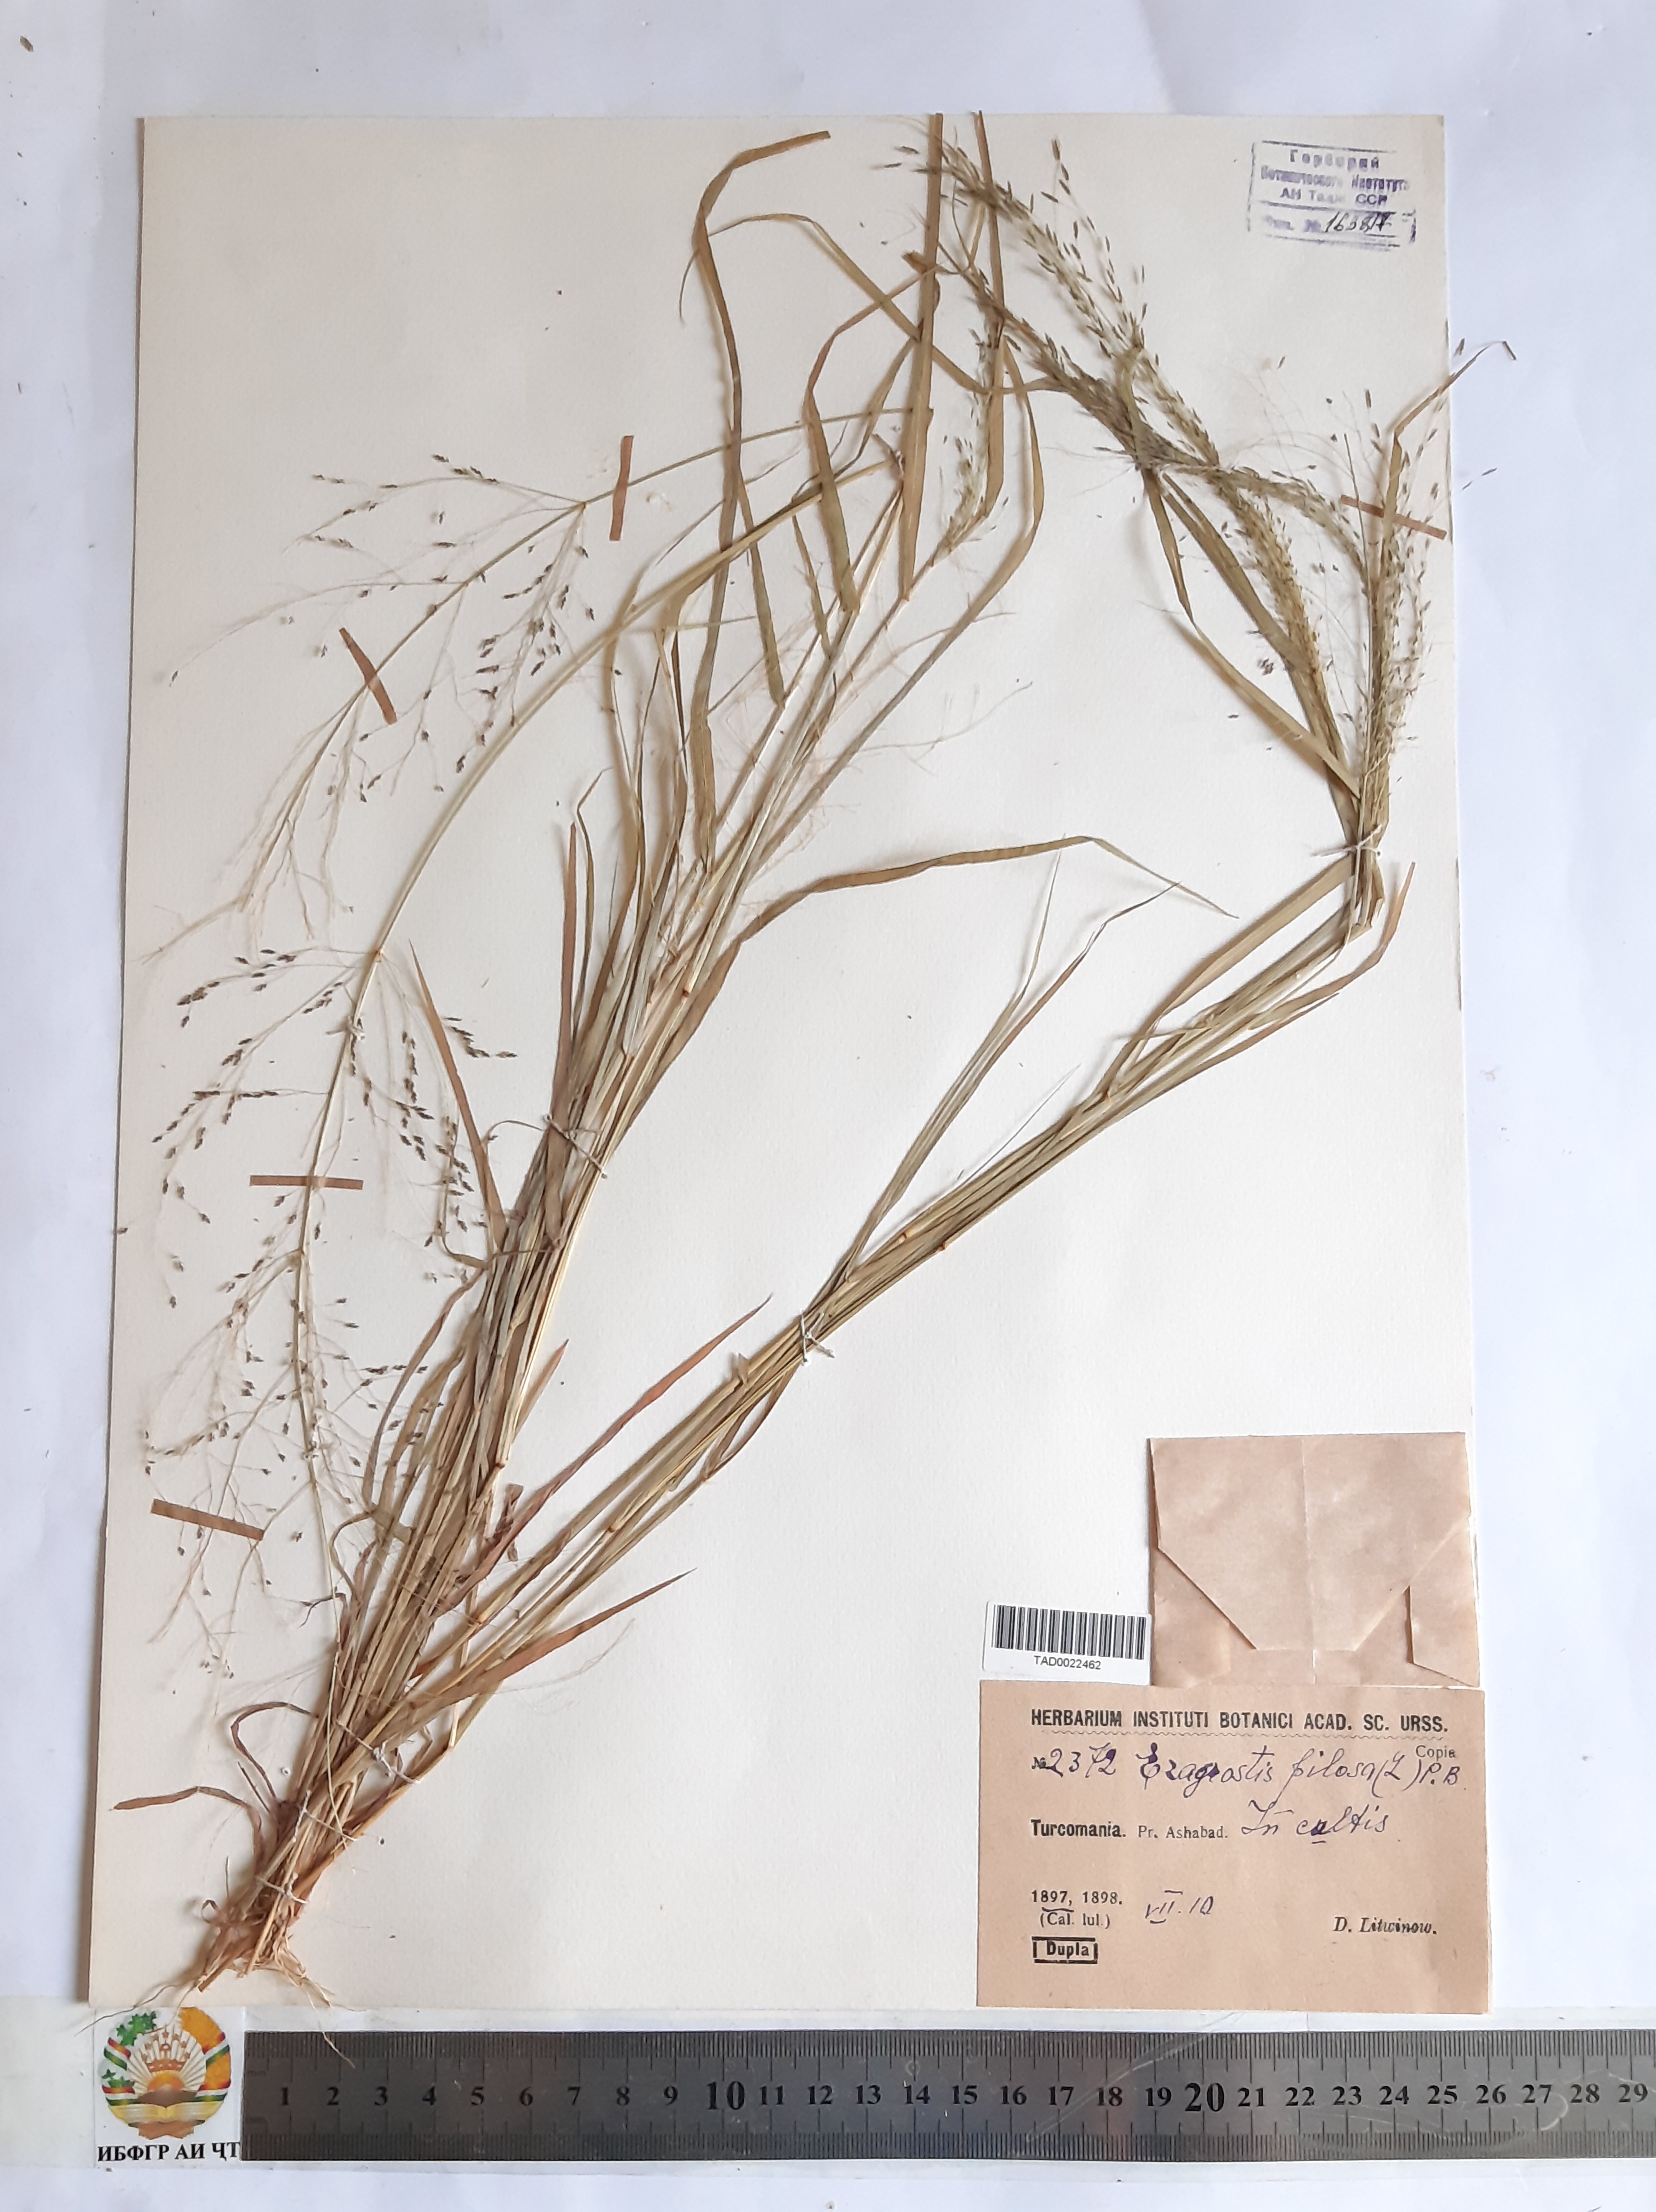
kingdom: Plantae
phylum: Tracheophyta
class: Liliopsida
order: Poales
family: Poaceae
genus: Eragrostis
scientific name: Eragrostis pilosa
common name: Indian lovegrass
